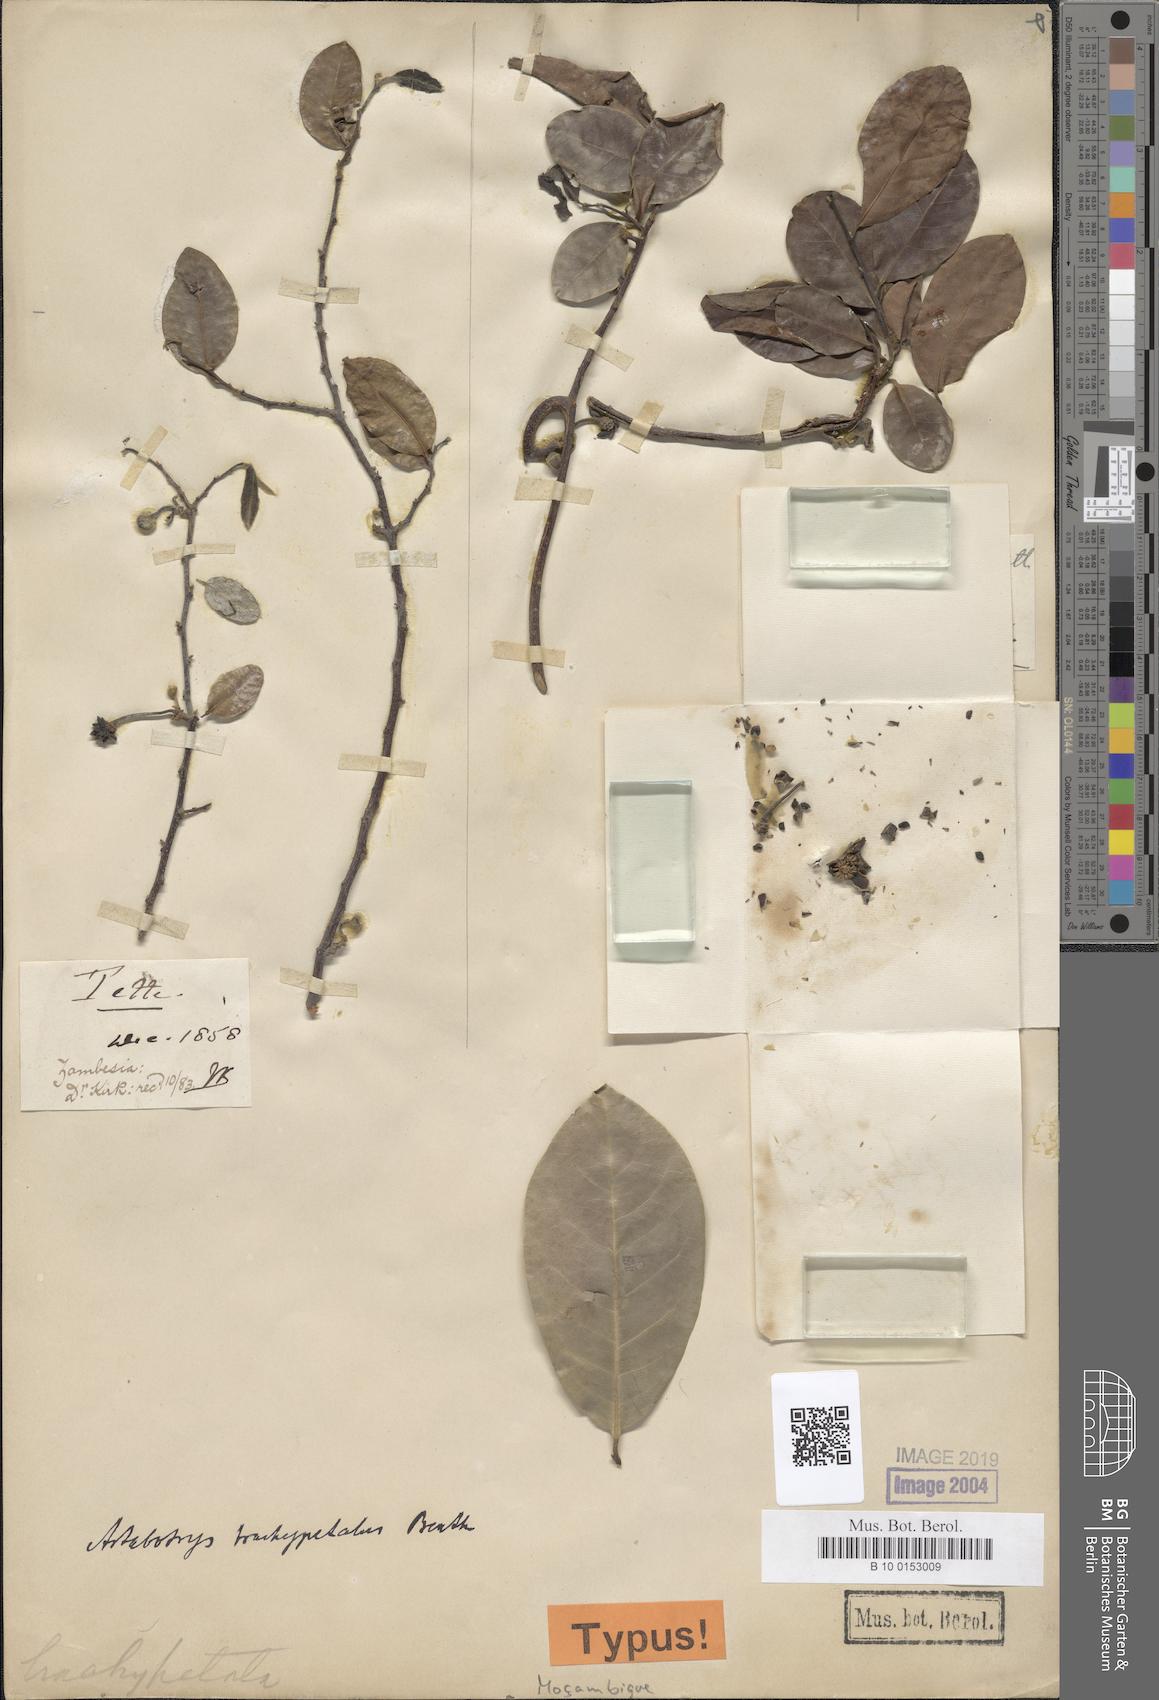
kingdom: Plantae
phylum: Tracheophyta
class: Magnoliopsida
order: Magnoliales
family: Annonaceae
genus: Artabotrys
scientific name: Artabotrys brachypetalus
